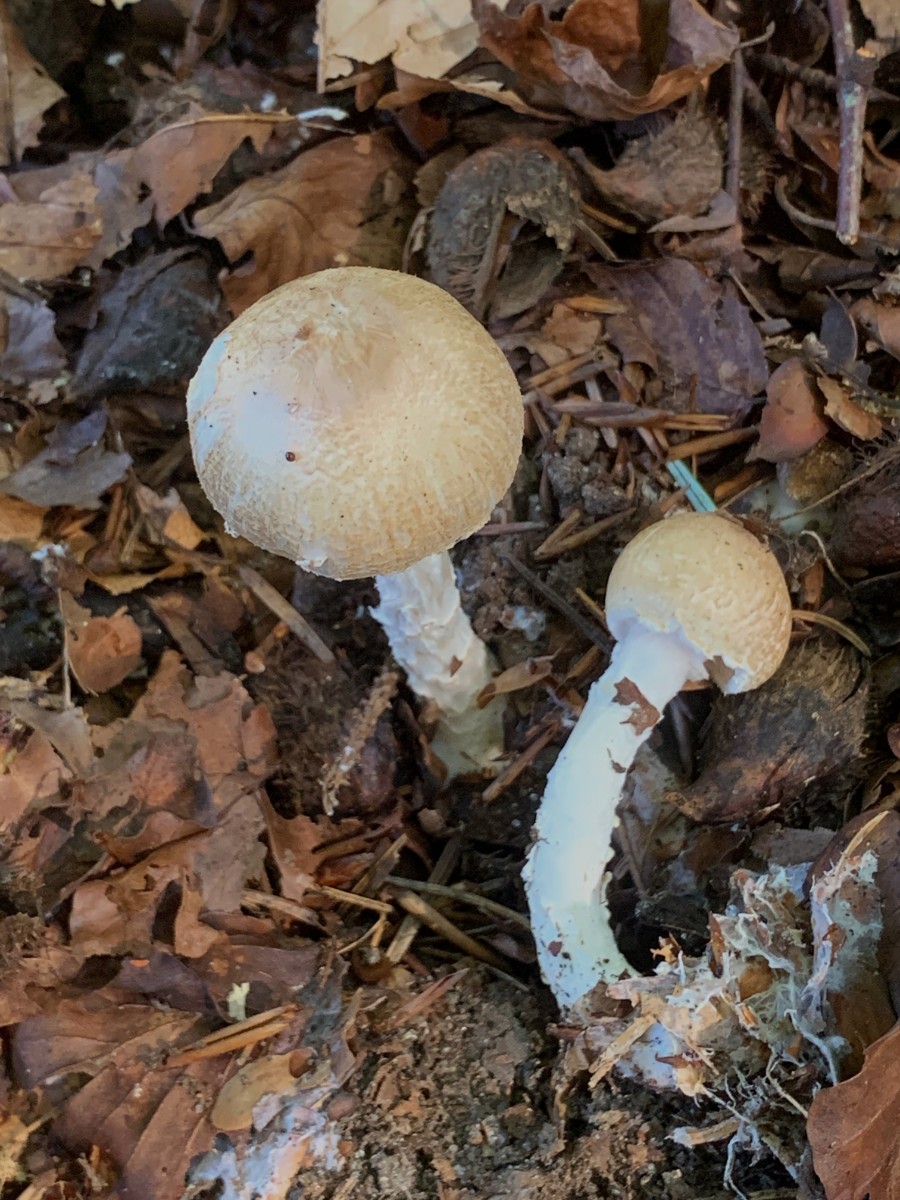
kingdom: Fungi
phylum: Basidiomycota
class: Agaricomycetes
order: Agaricales
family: Agaricaceae
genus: Lepiota
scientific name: Lepiota magnispora
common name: gulfnugget parasolhat
